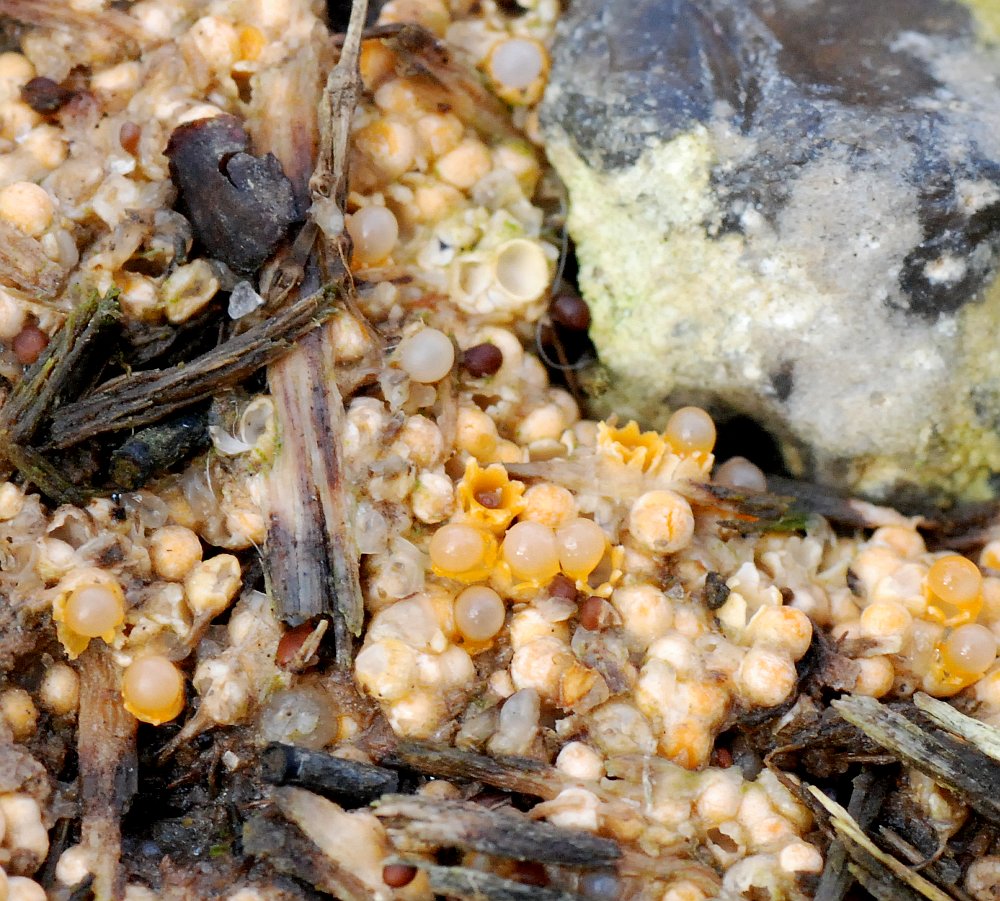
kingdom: Fungi
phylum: Basidiomycota
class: Agaricomycetes
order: Geastrales
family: Geastraceae
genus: Sphaerobolus
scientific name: Sphaerobolus stellatus
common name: bombekaster
